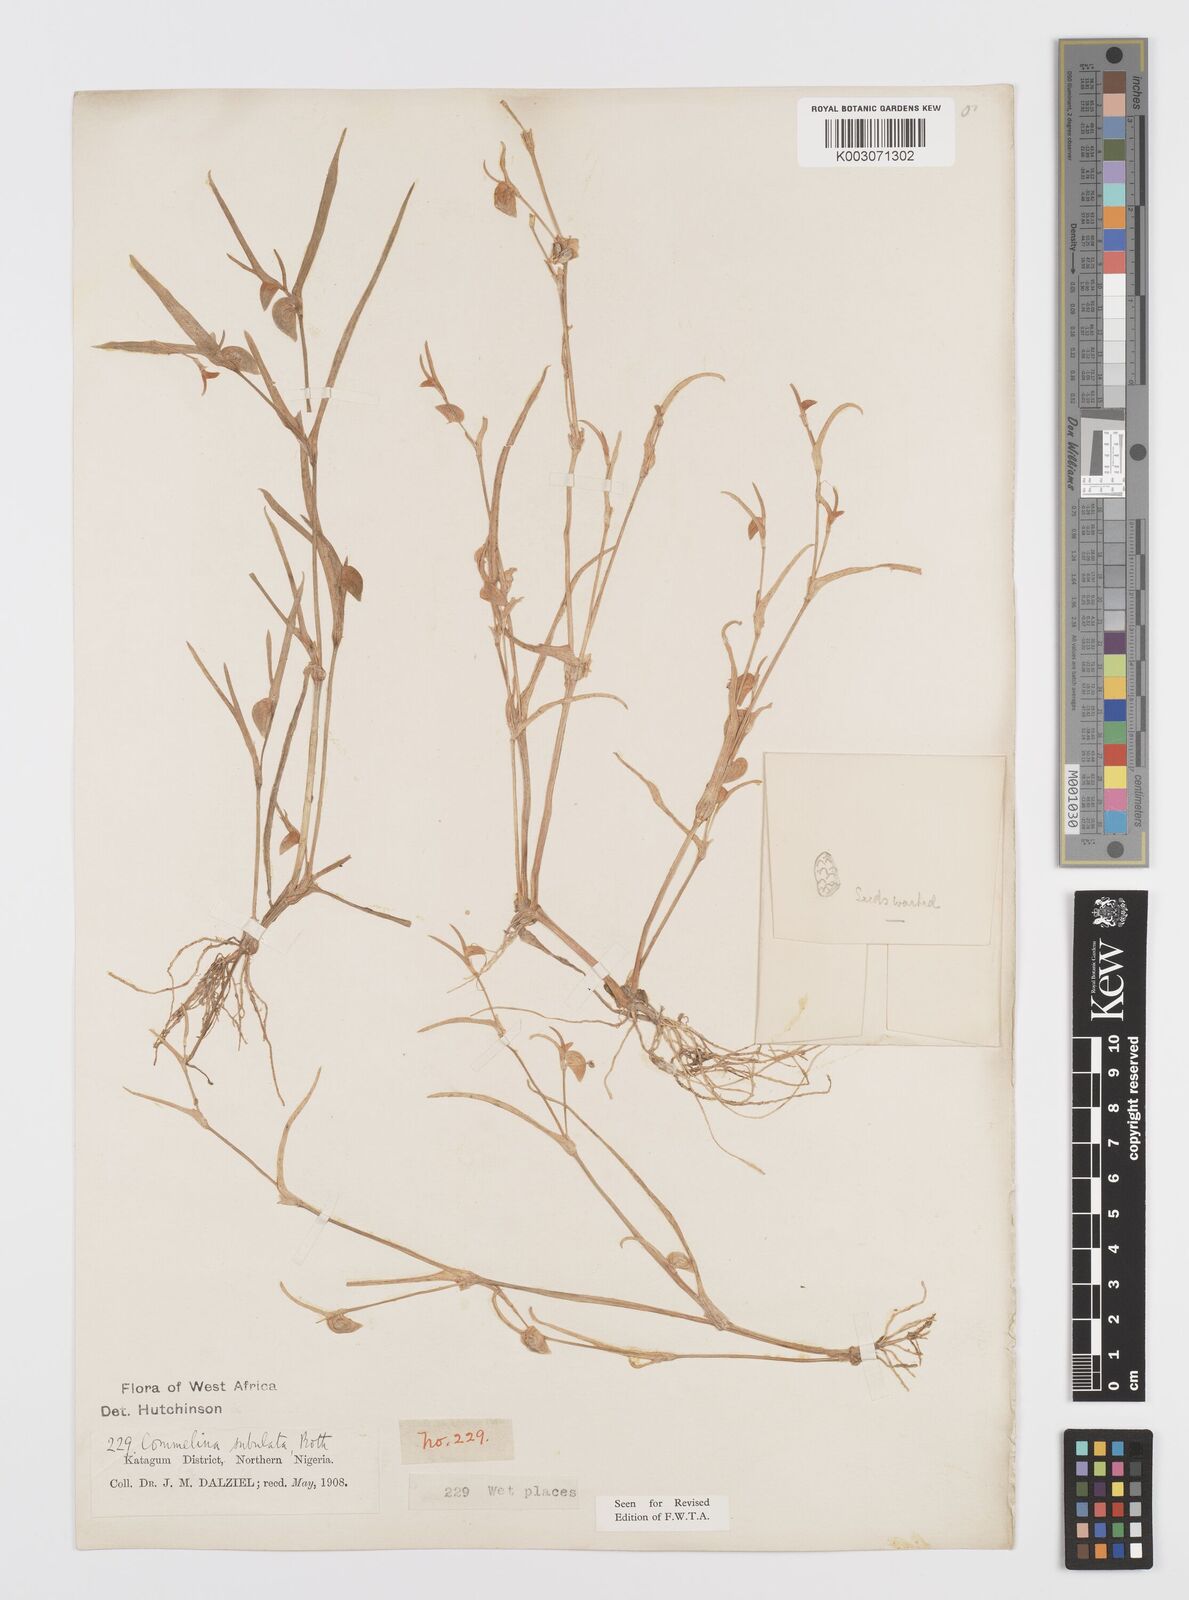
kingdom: Plantae
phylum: Tracheophyta
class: Liliopsida
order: Commelinales
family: Commelinaceae
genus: Commelina
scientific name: Commelina subulata
